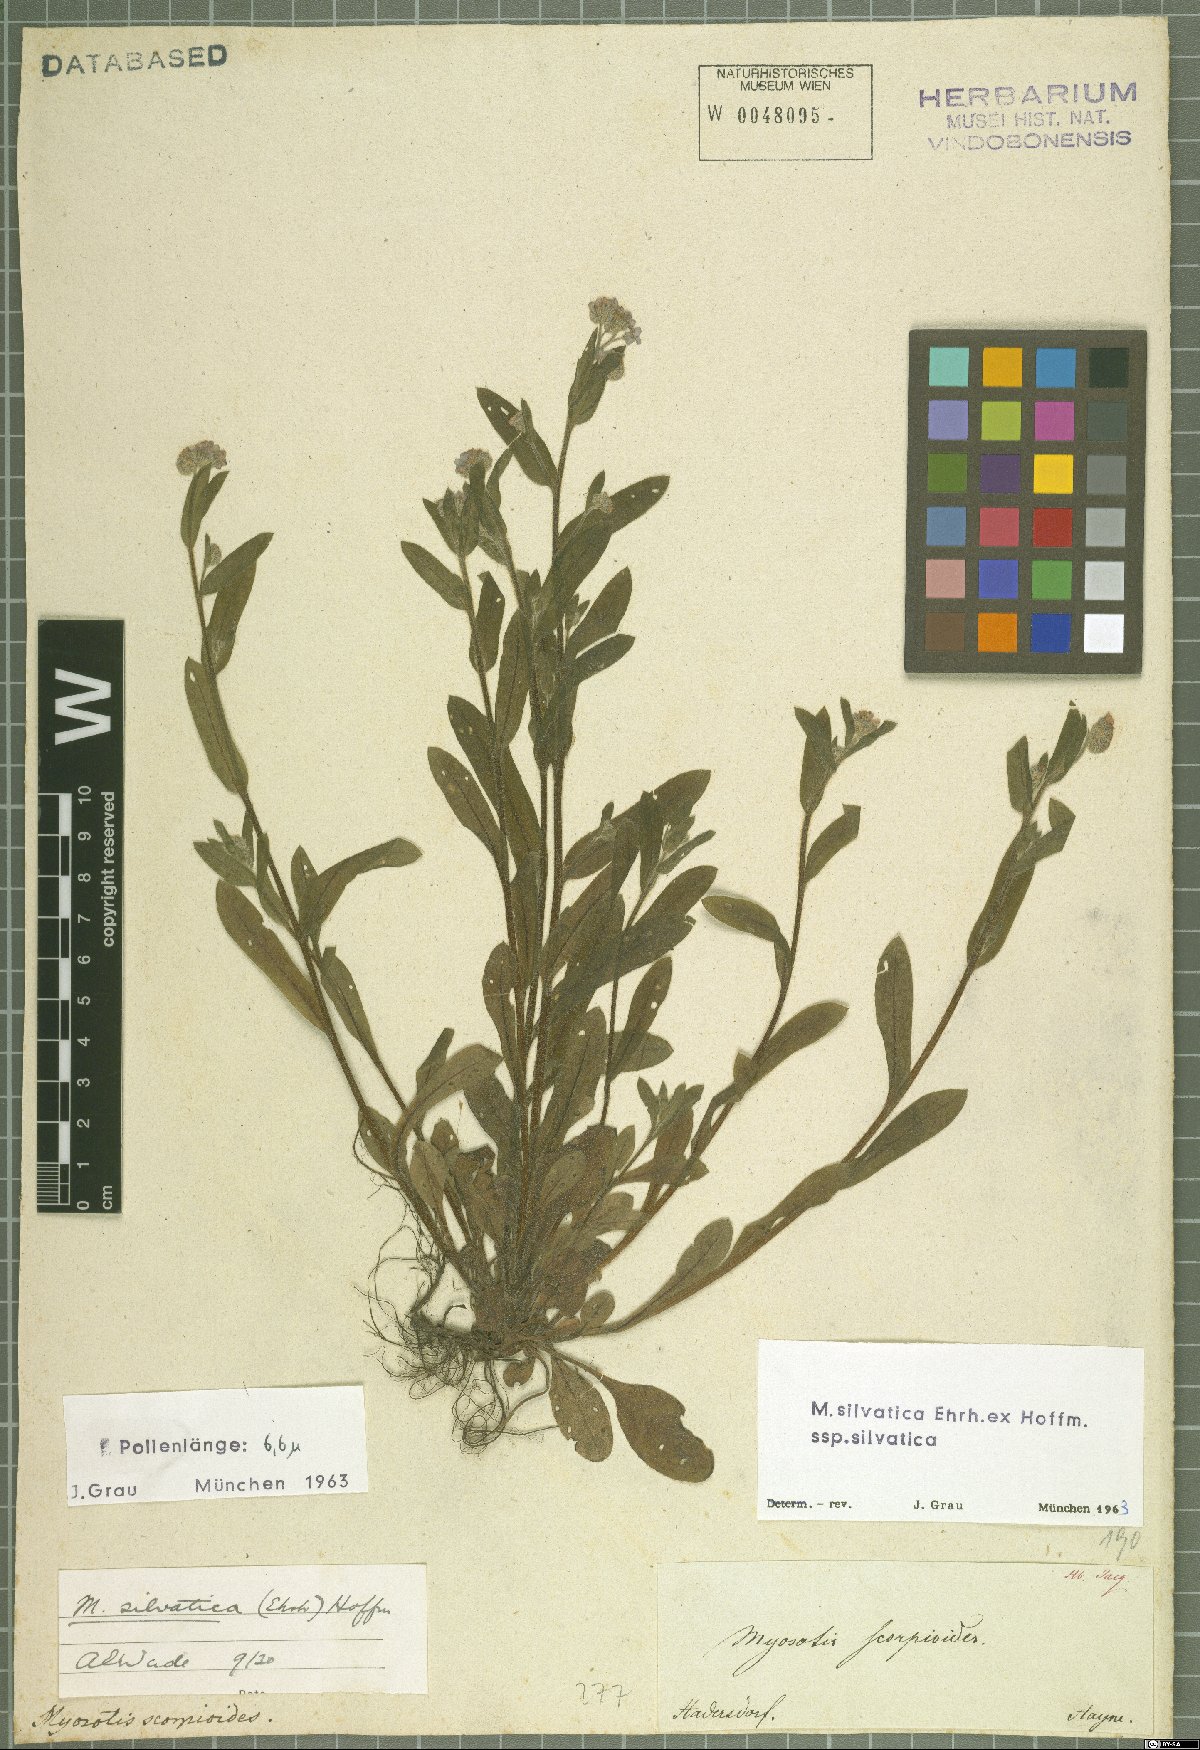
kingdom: Plantae
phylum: Tracheophyta
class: Magnoliopsida
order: Boraginales
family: Boraginaceae
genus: Myosotis
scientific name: Myosotis sylvatica
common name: Wood forget-me-not
